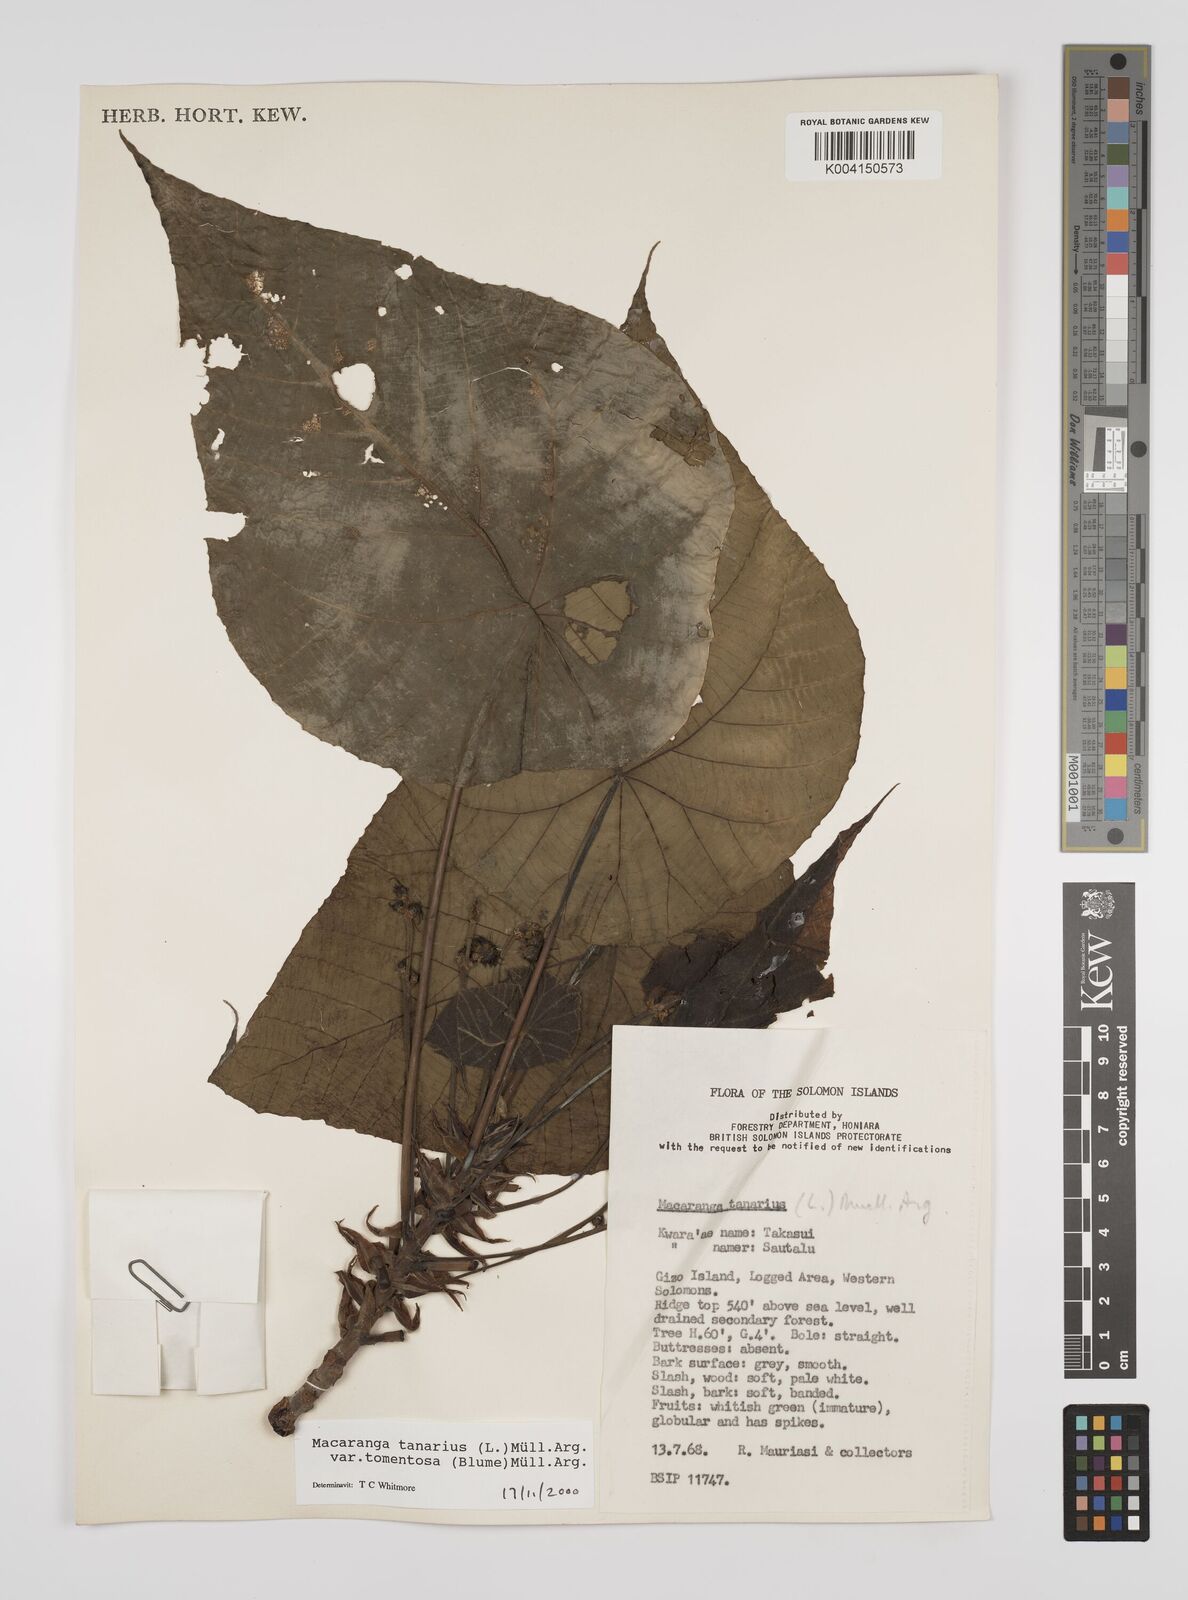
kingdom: Plantae
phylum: Tracheophyta
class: Magnoliopsida
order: Malpighiales
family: Euphorbiaceae
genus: Macaranga
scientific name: Macaranga tanarius
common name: Parasol leaf tree
